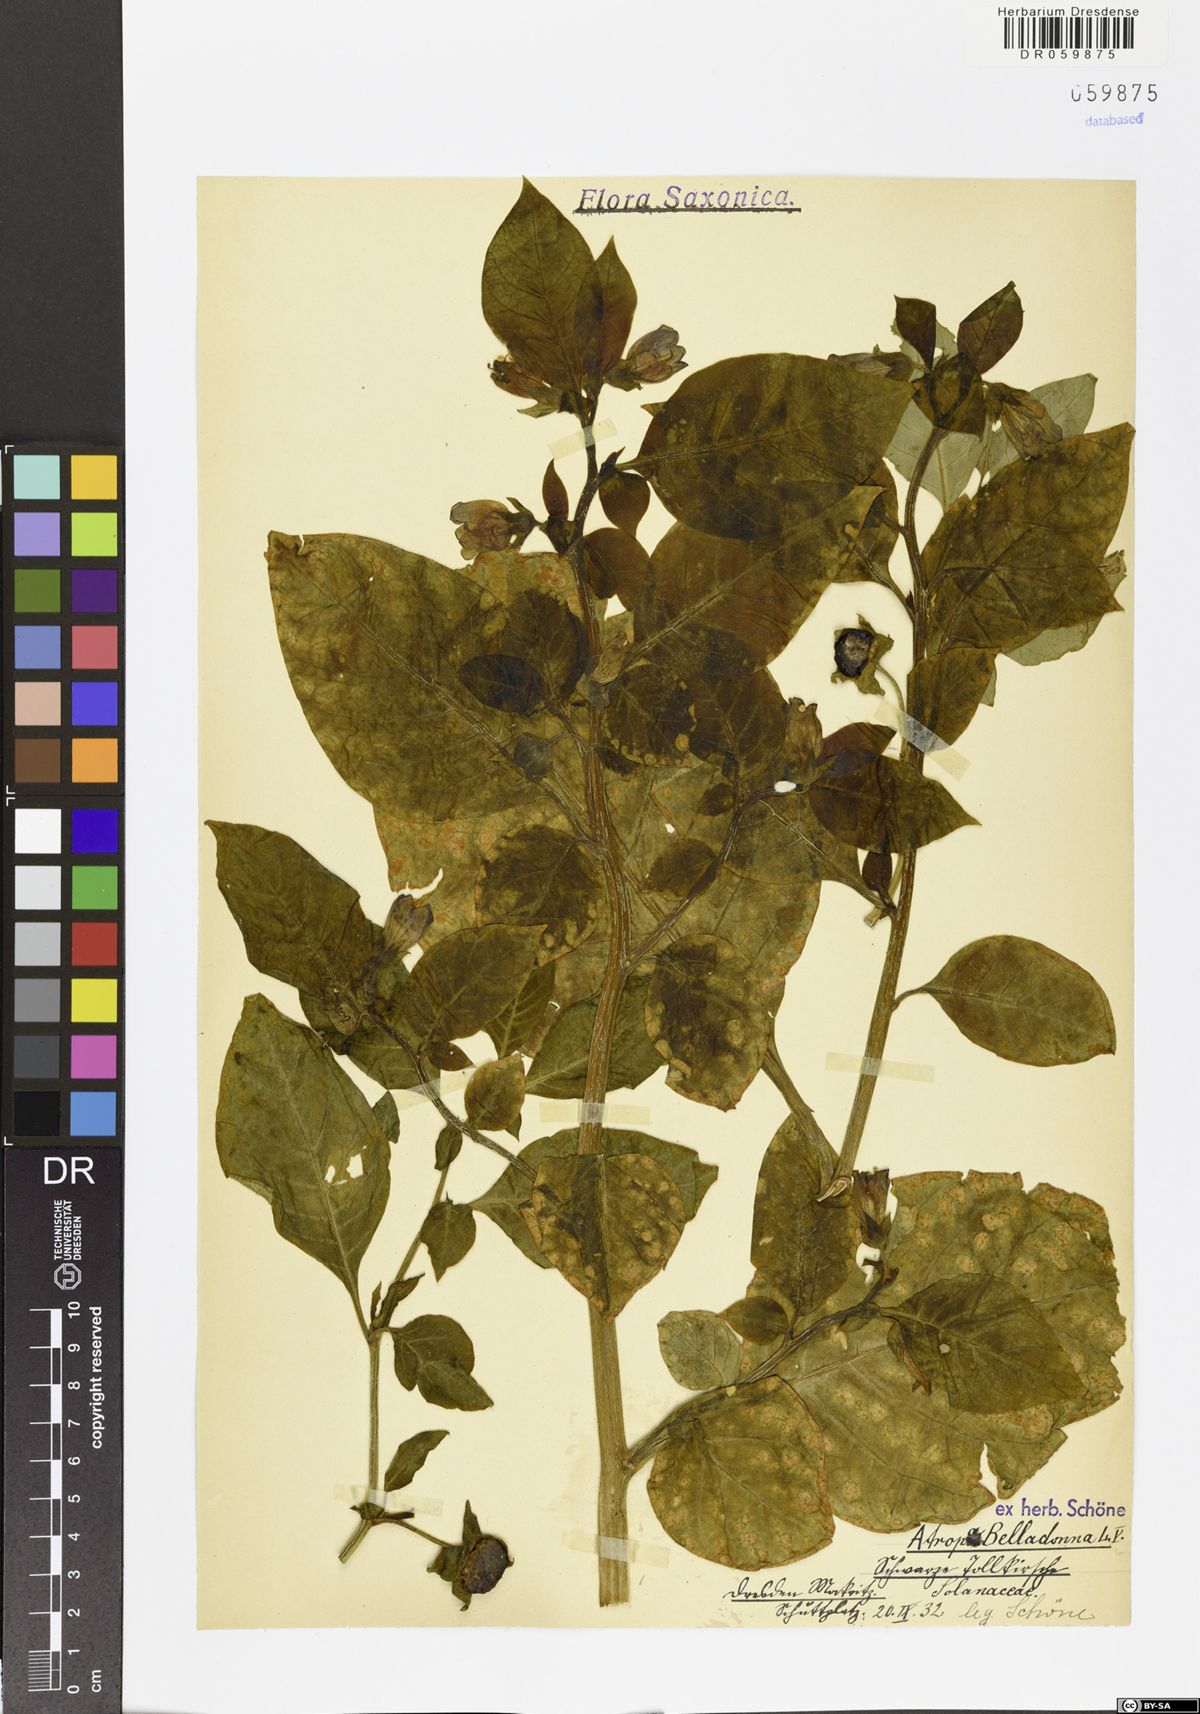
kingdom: Plantae
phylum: Tracheophyta
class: Magnoliopsida
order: Solanales
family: Solanaceae
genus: Atropa
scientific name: Atropa belladonna
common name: Deadly nightshade
